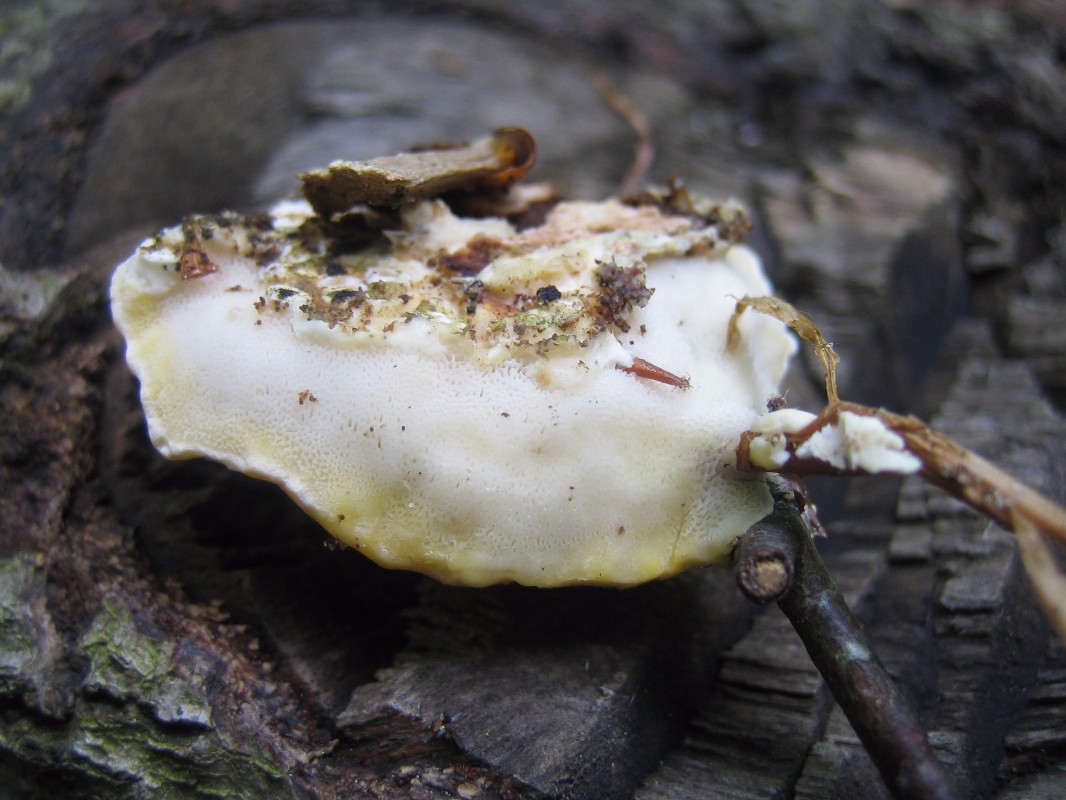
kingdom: Fungi
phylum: Basidiomycota
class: Agaricomycetes
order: Polyporales
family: Steccherinaceae
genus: Antrodiella
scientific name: Antrodiella serpula
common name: gulrandet elastikporesvamp
